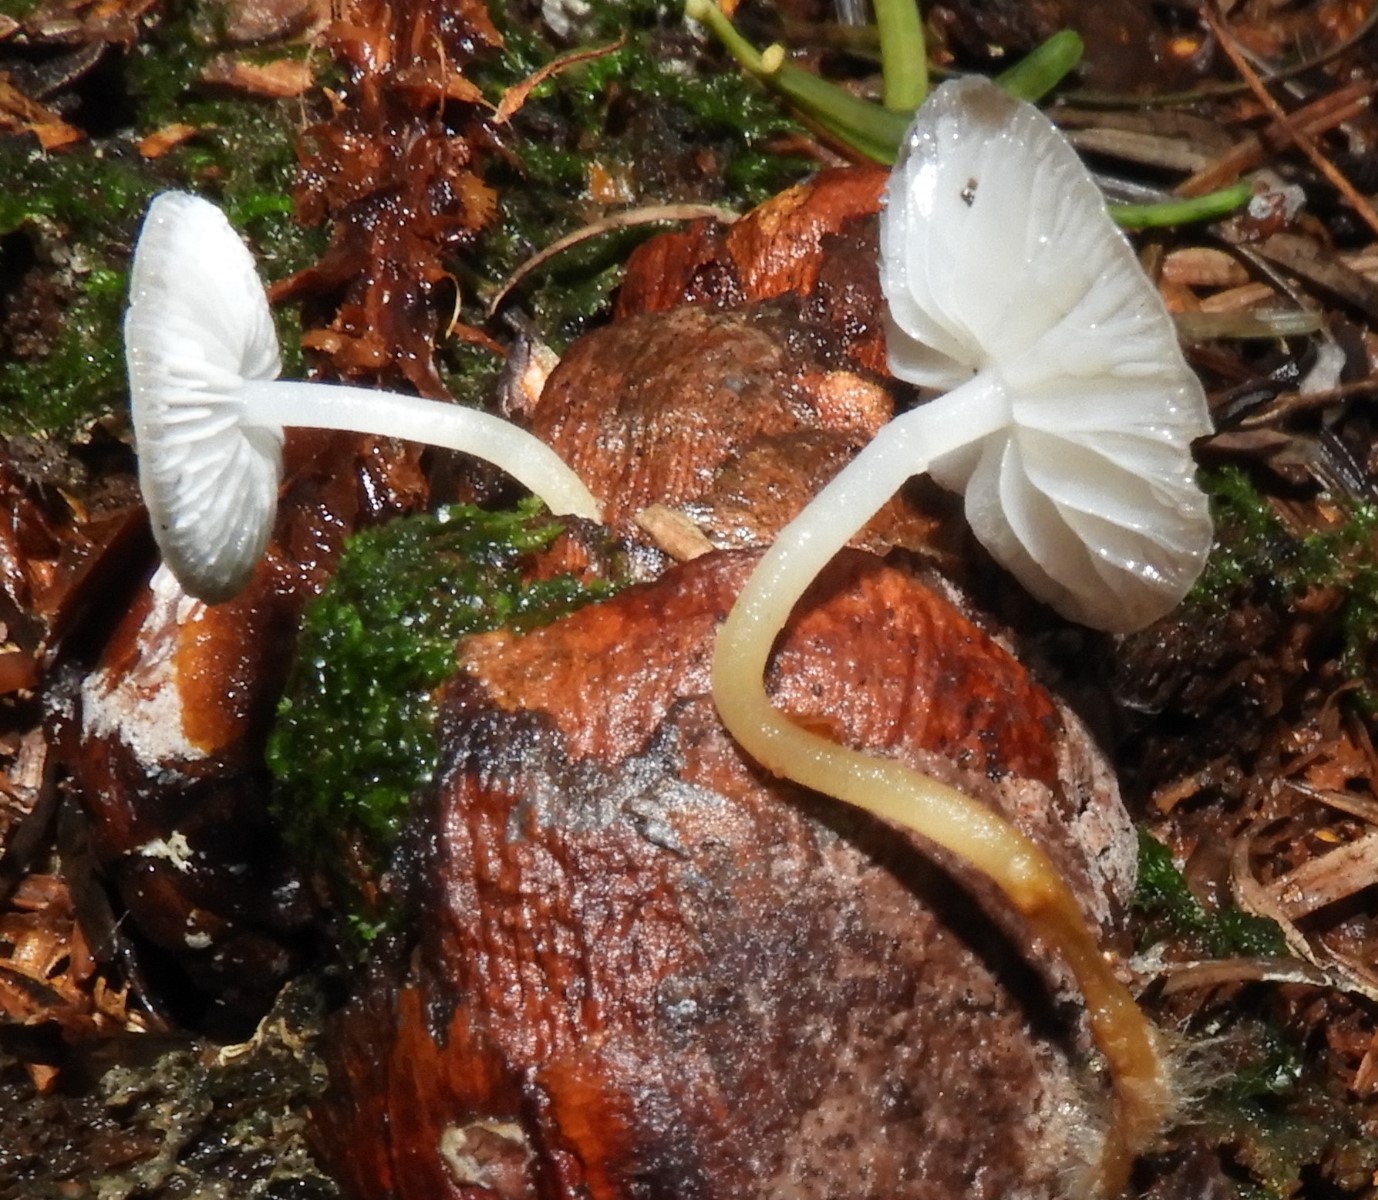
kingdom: Fungi
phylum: Basidiomycota
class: Agaricomycetes
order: Agaricales
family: Physalacriaceae
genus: Strobilurus
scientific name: Strobilurus esculentus
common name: gran-koglehat
